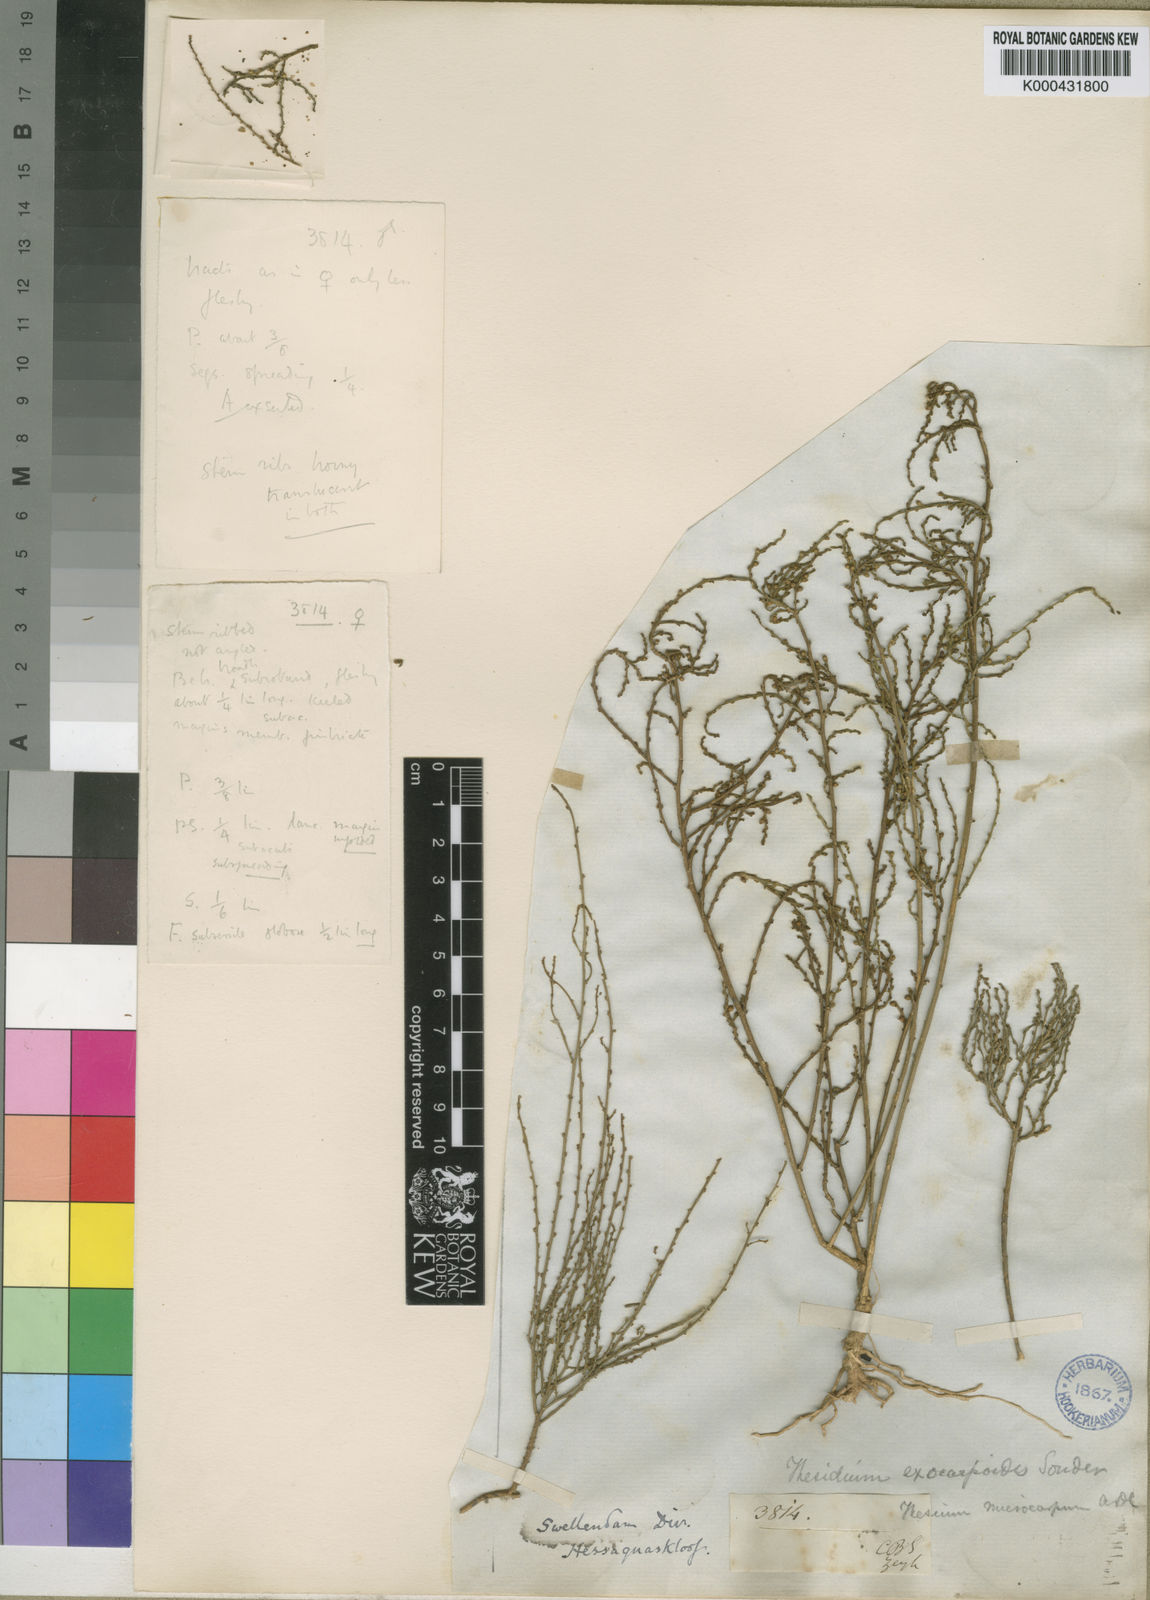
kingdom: Plantae
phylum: Tracheophyta
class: Magnoliopsida
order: Santalales
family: Thesiaceae
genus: Thesium
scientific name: Thesium confusum
